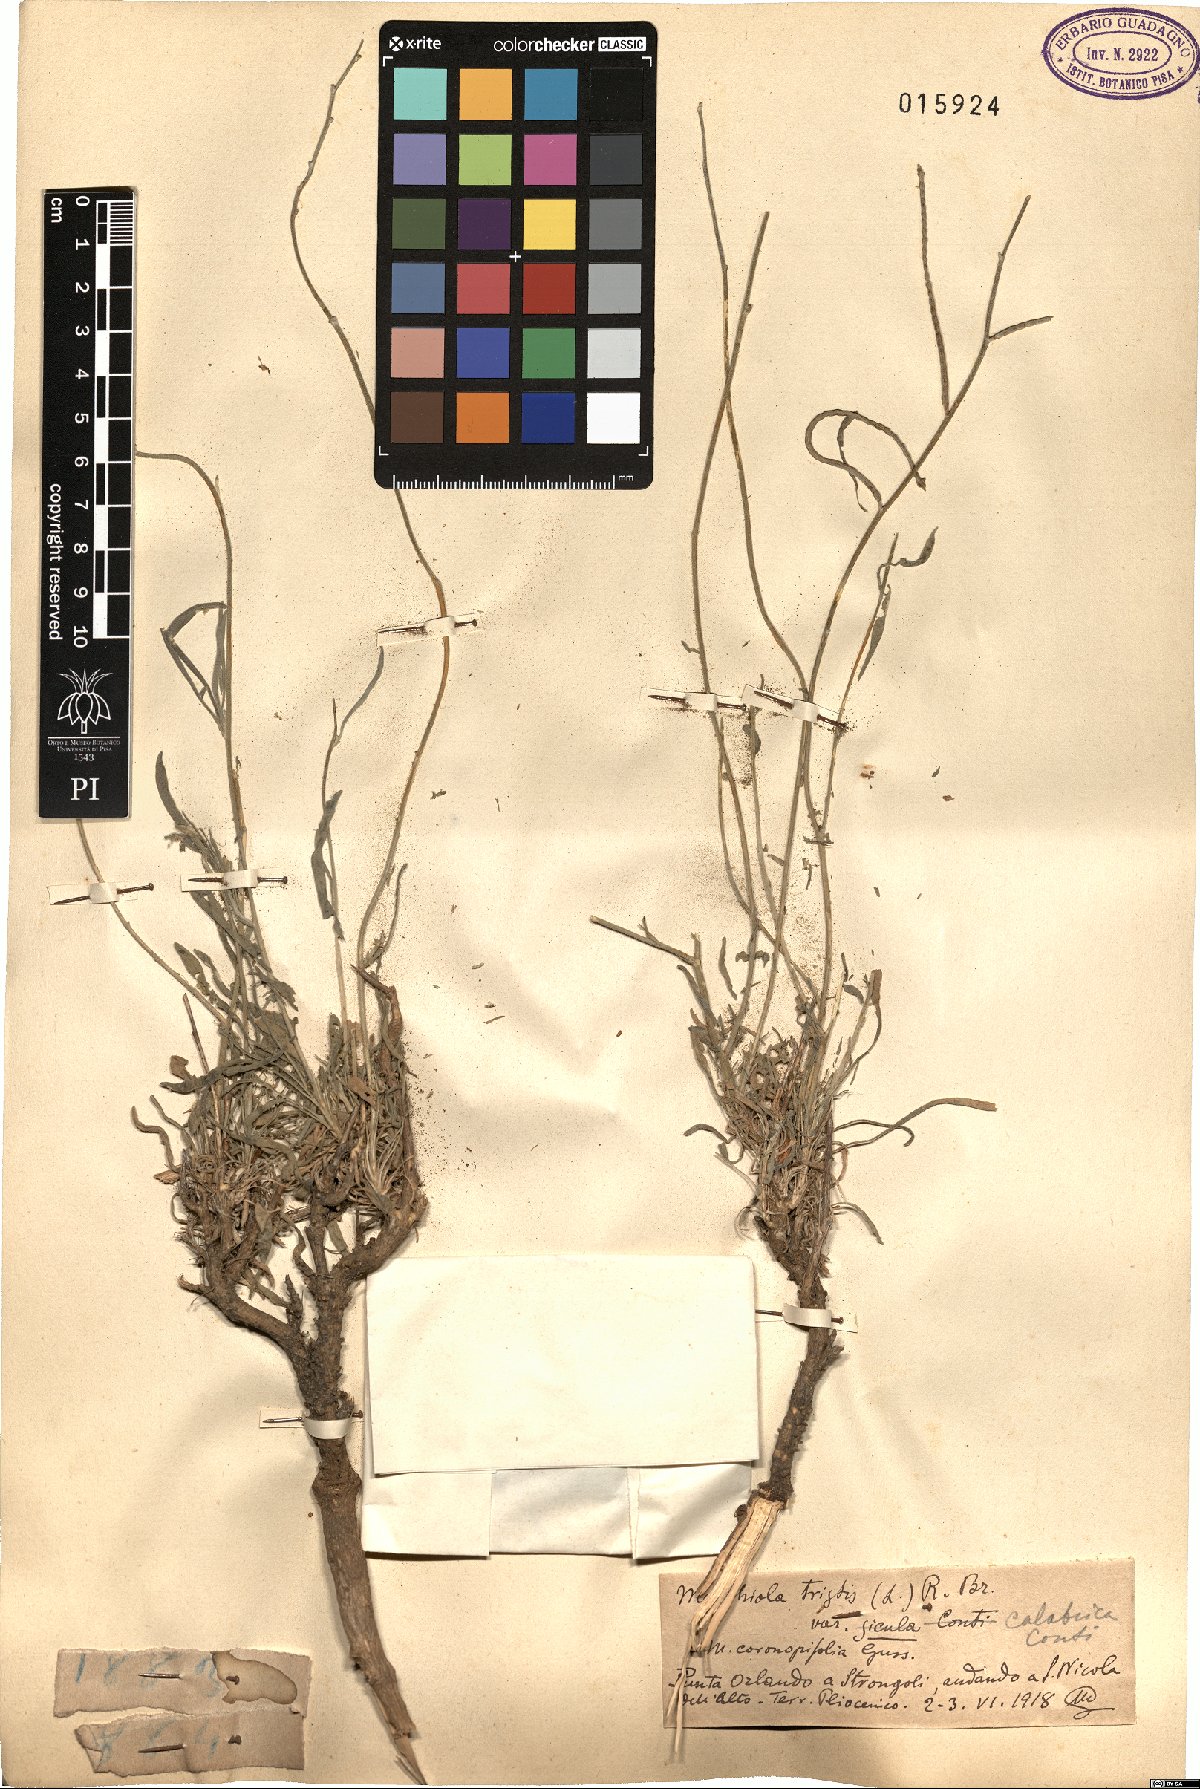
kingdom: Plantae
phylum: Tracheophyta
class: Magnoliopsida
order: Brassicales
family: Brassicaceae
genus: Matthiola
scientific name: Matthiola tristis
